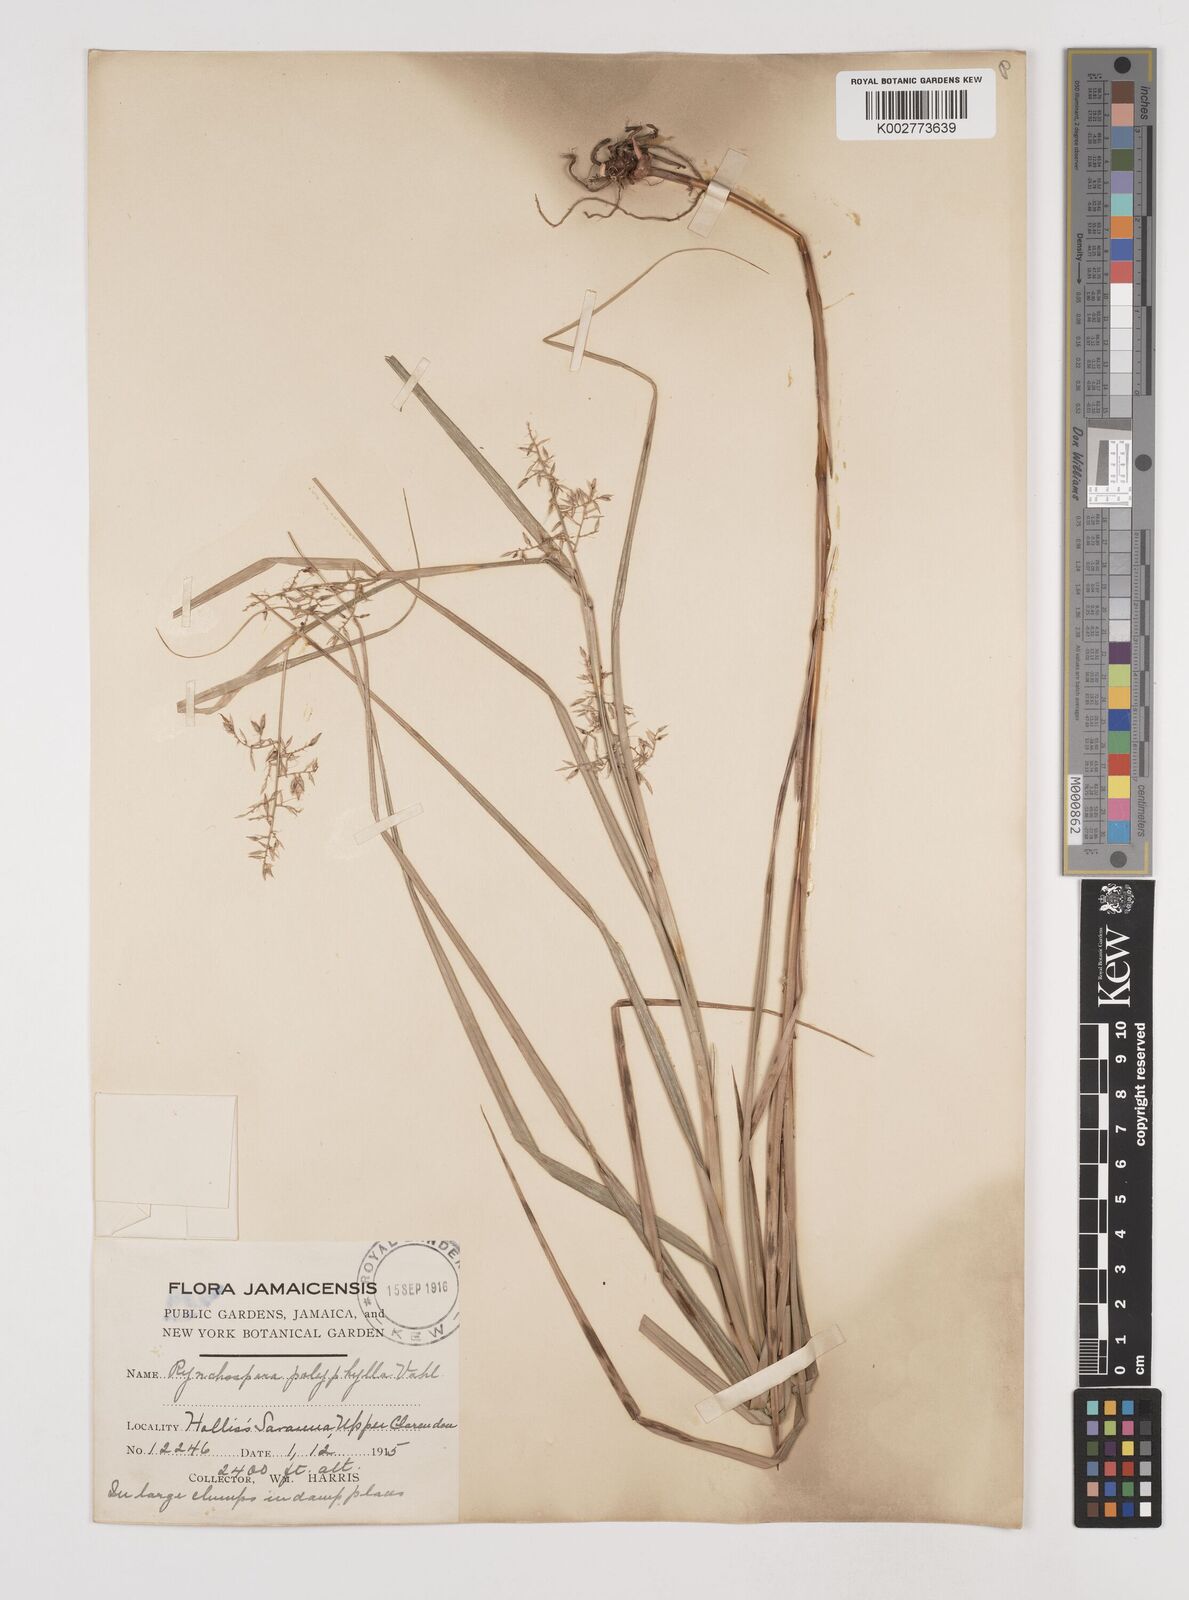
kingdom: Plantae
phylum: Tracheophyta
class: Liliopsida
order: Poales
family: Cyperaceae
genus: Rhynchospora
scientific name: Rhynchospora polyphylla
